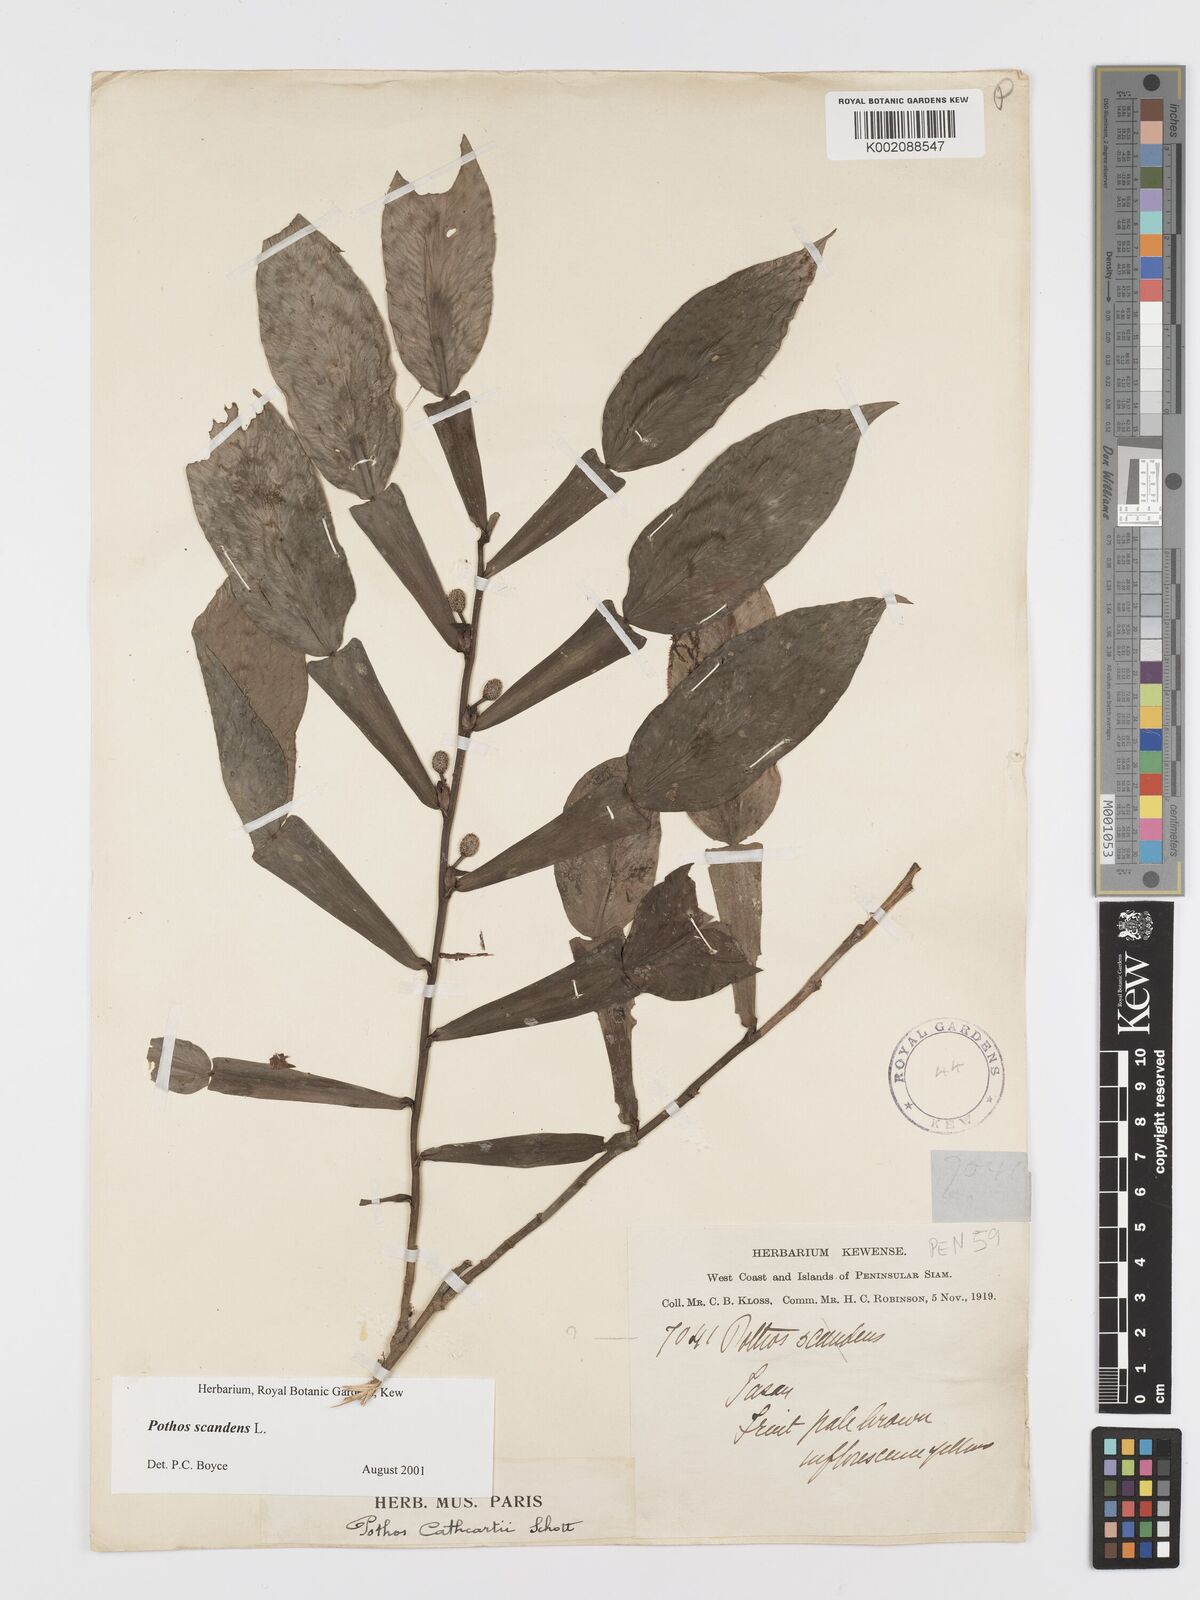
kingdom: Plantae
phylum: Tracheophyta
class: Liliopsida
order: Alismatales
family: Araceae
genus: Pothos
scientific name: Pothos scandens
